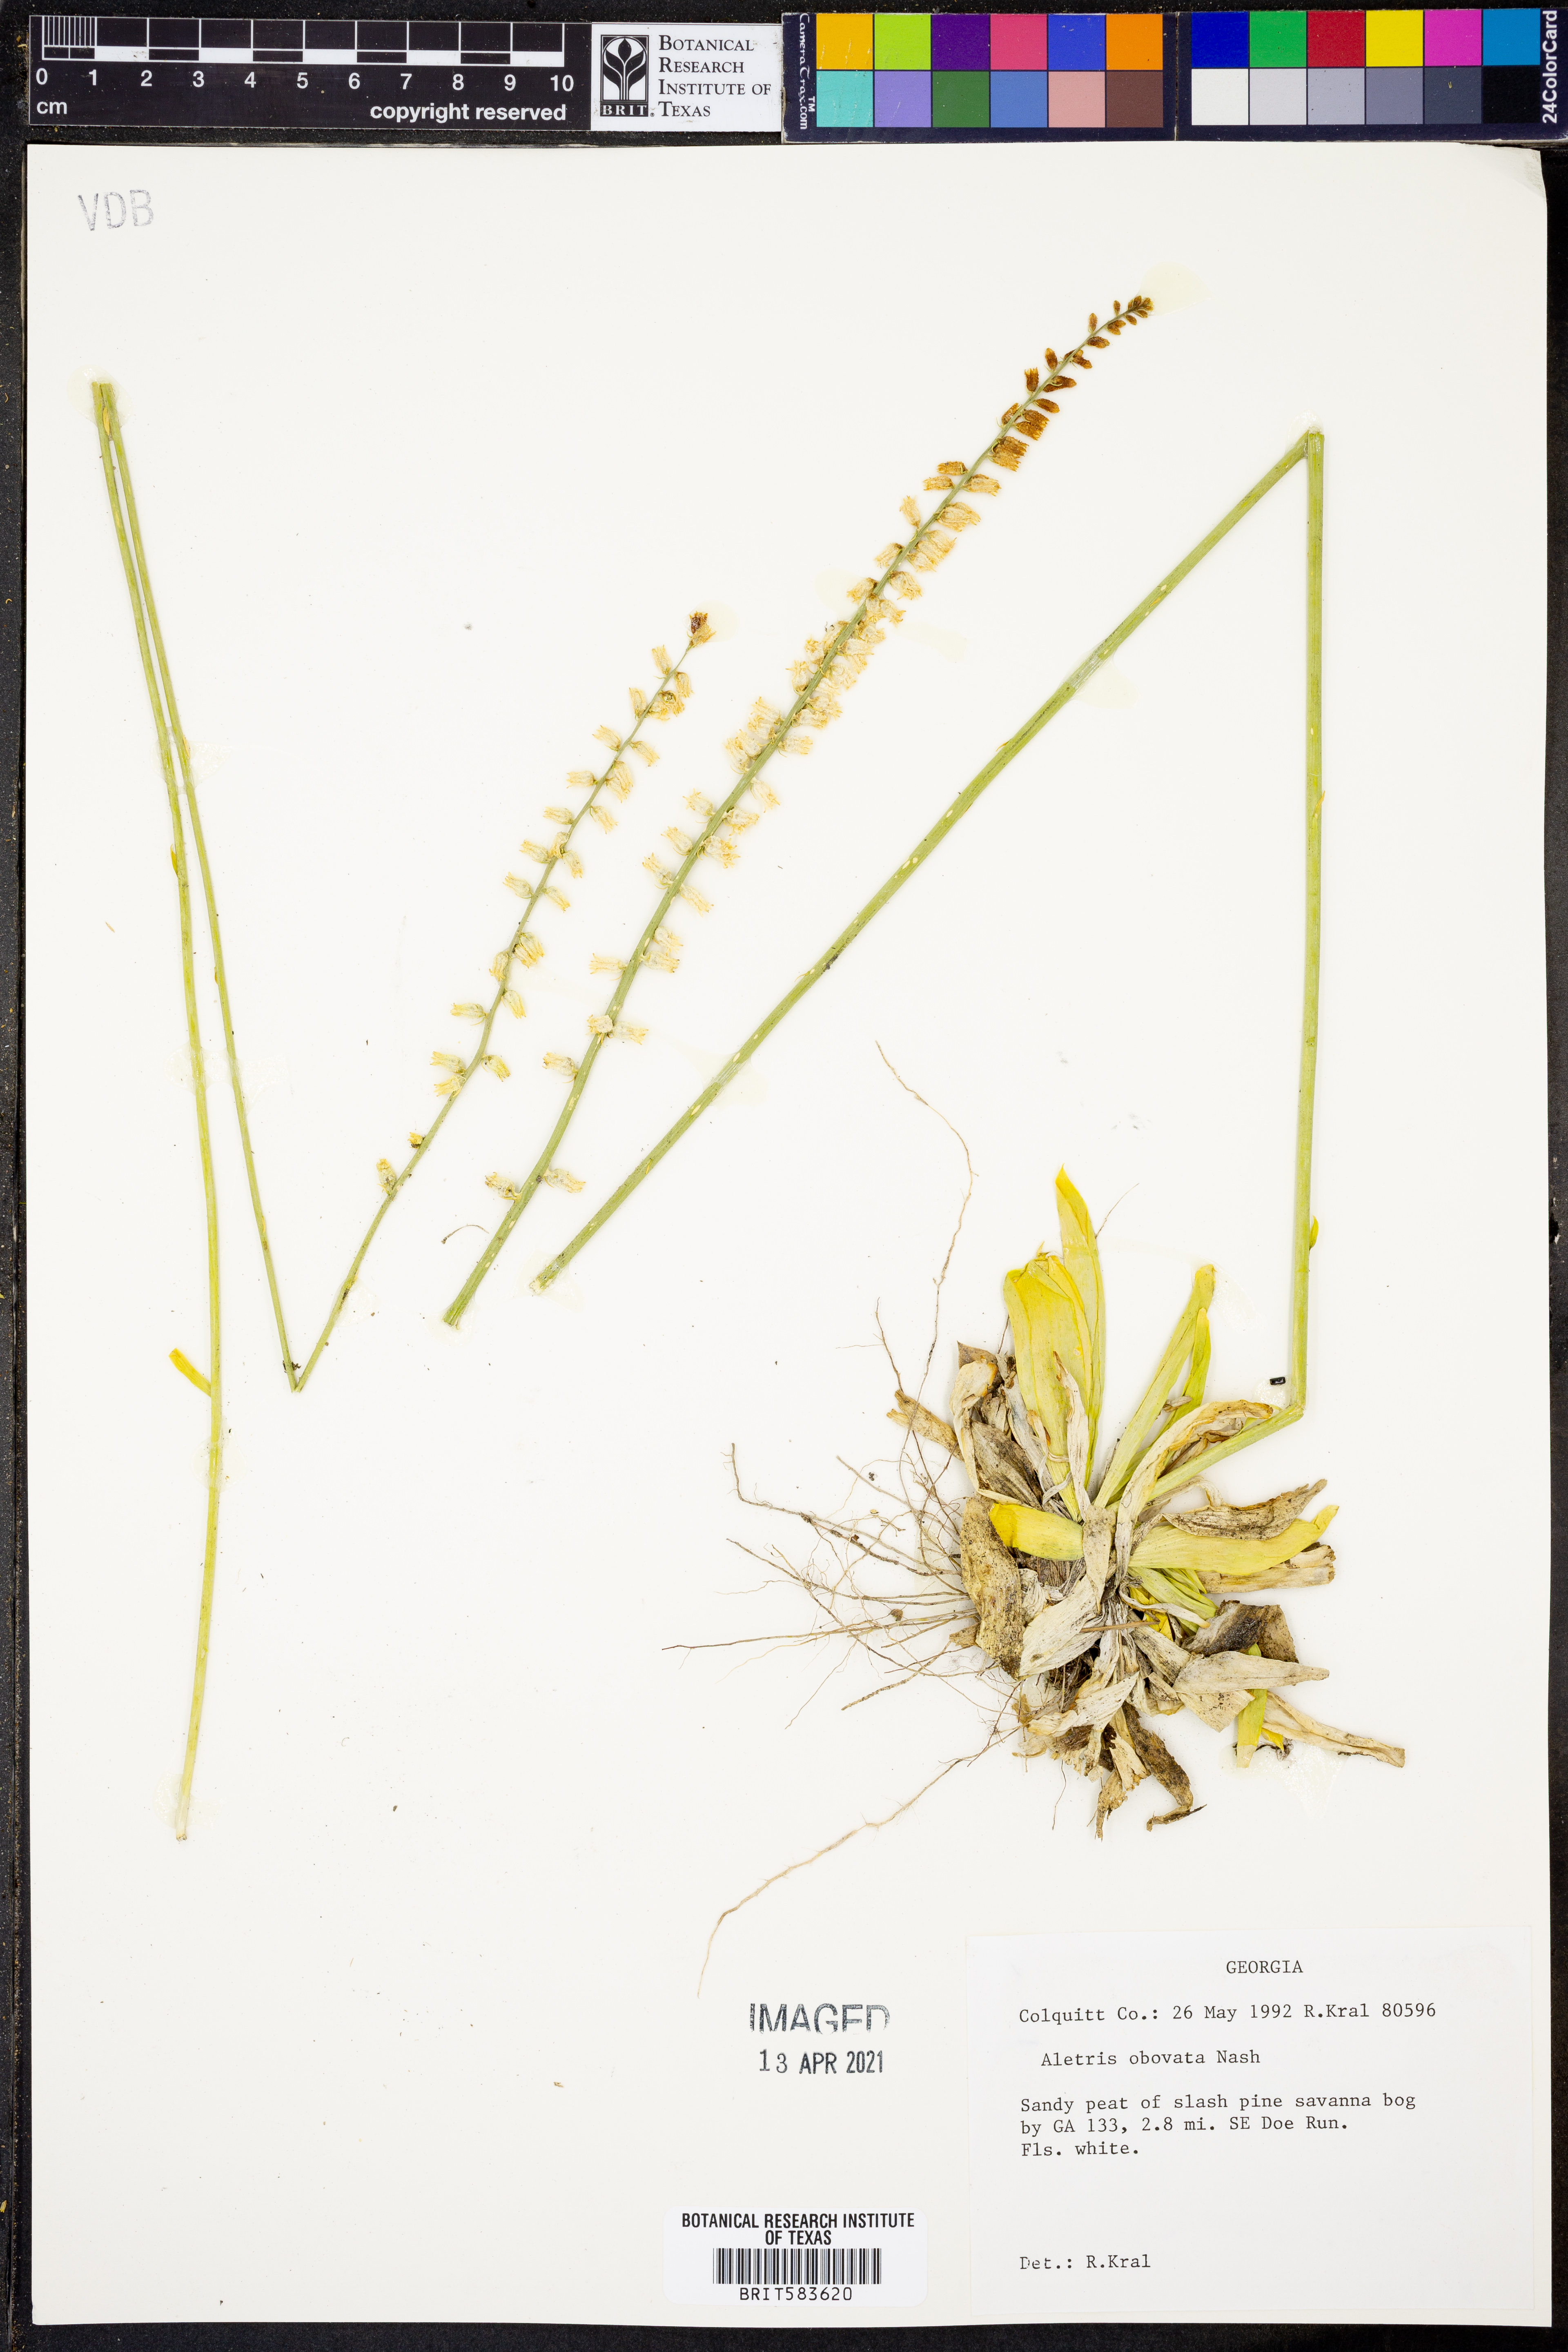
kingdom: Plantae
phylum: Tracheophyta
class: Liliopsida
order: Dioscoreales
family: Nartheciaceae
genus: Aletris
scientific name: Aletris obovata
